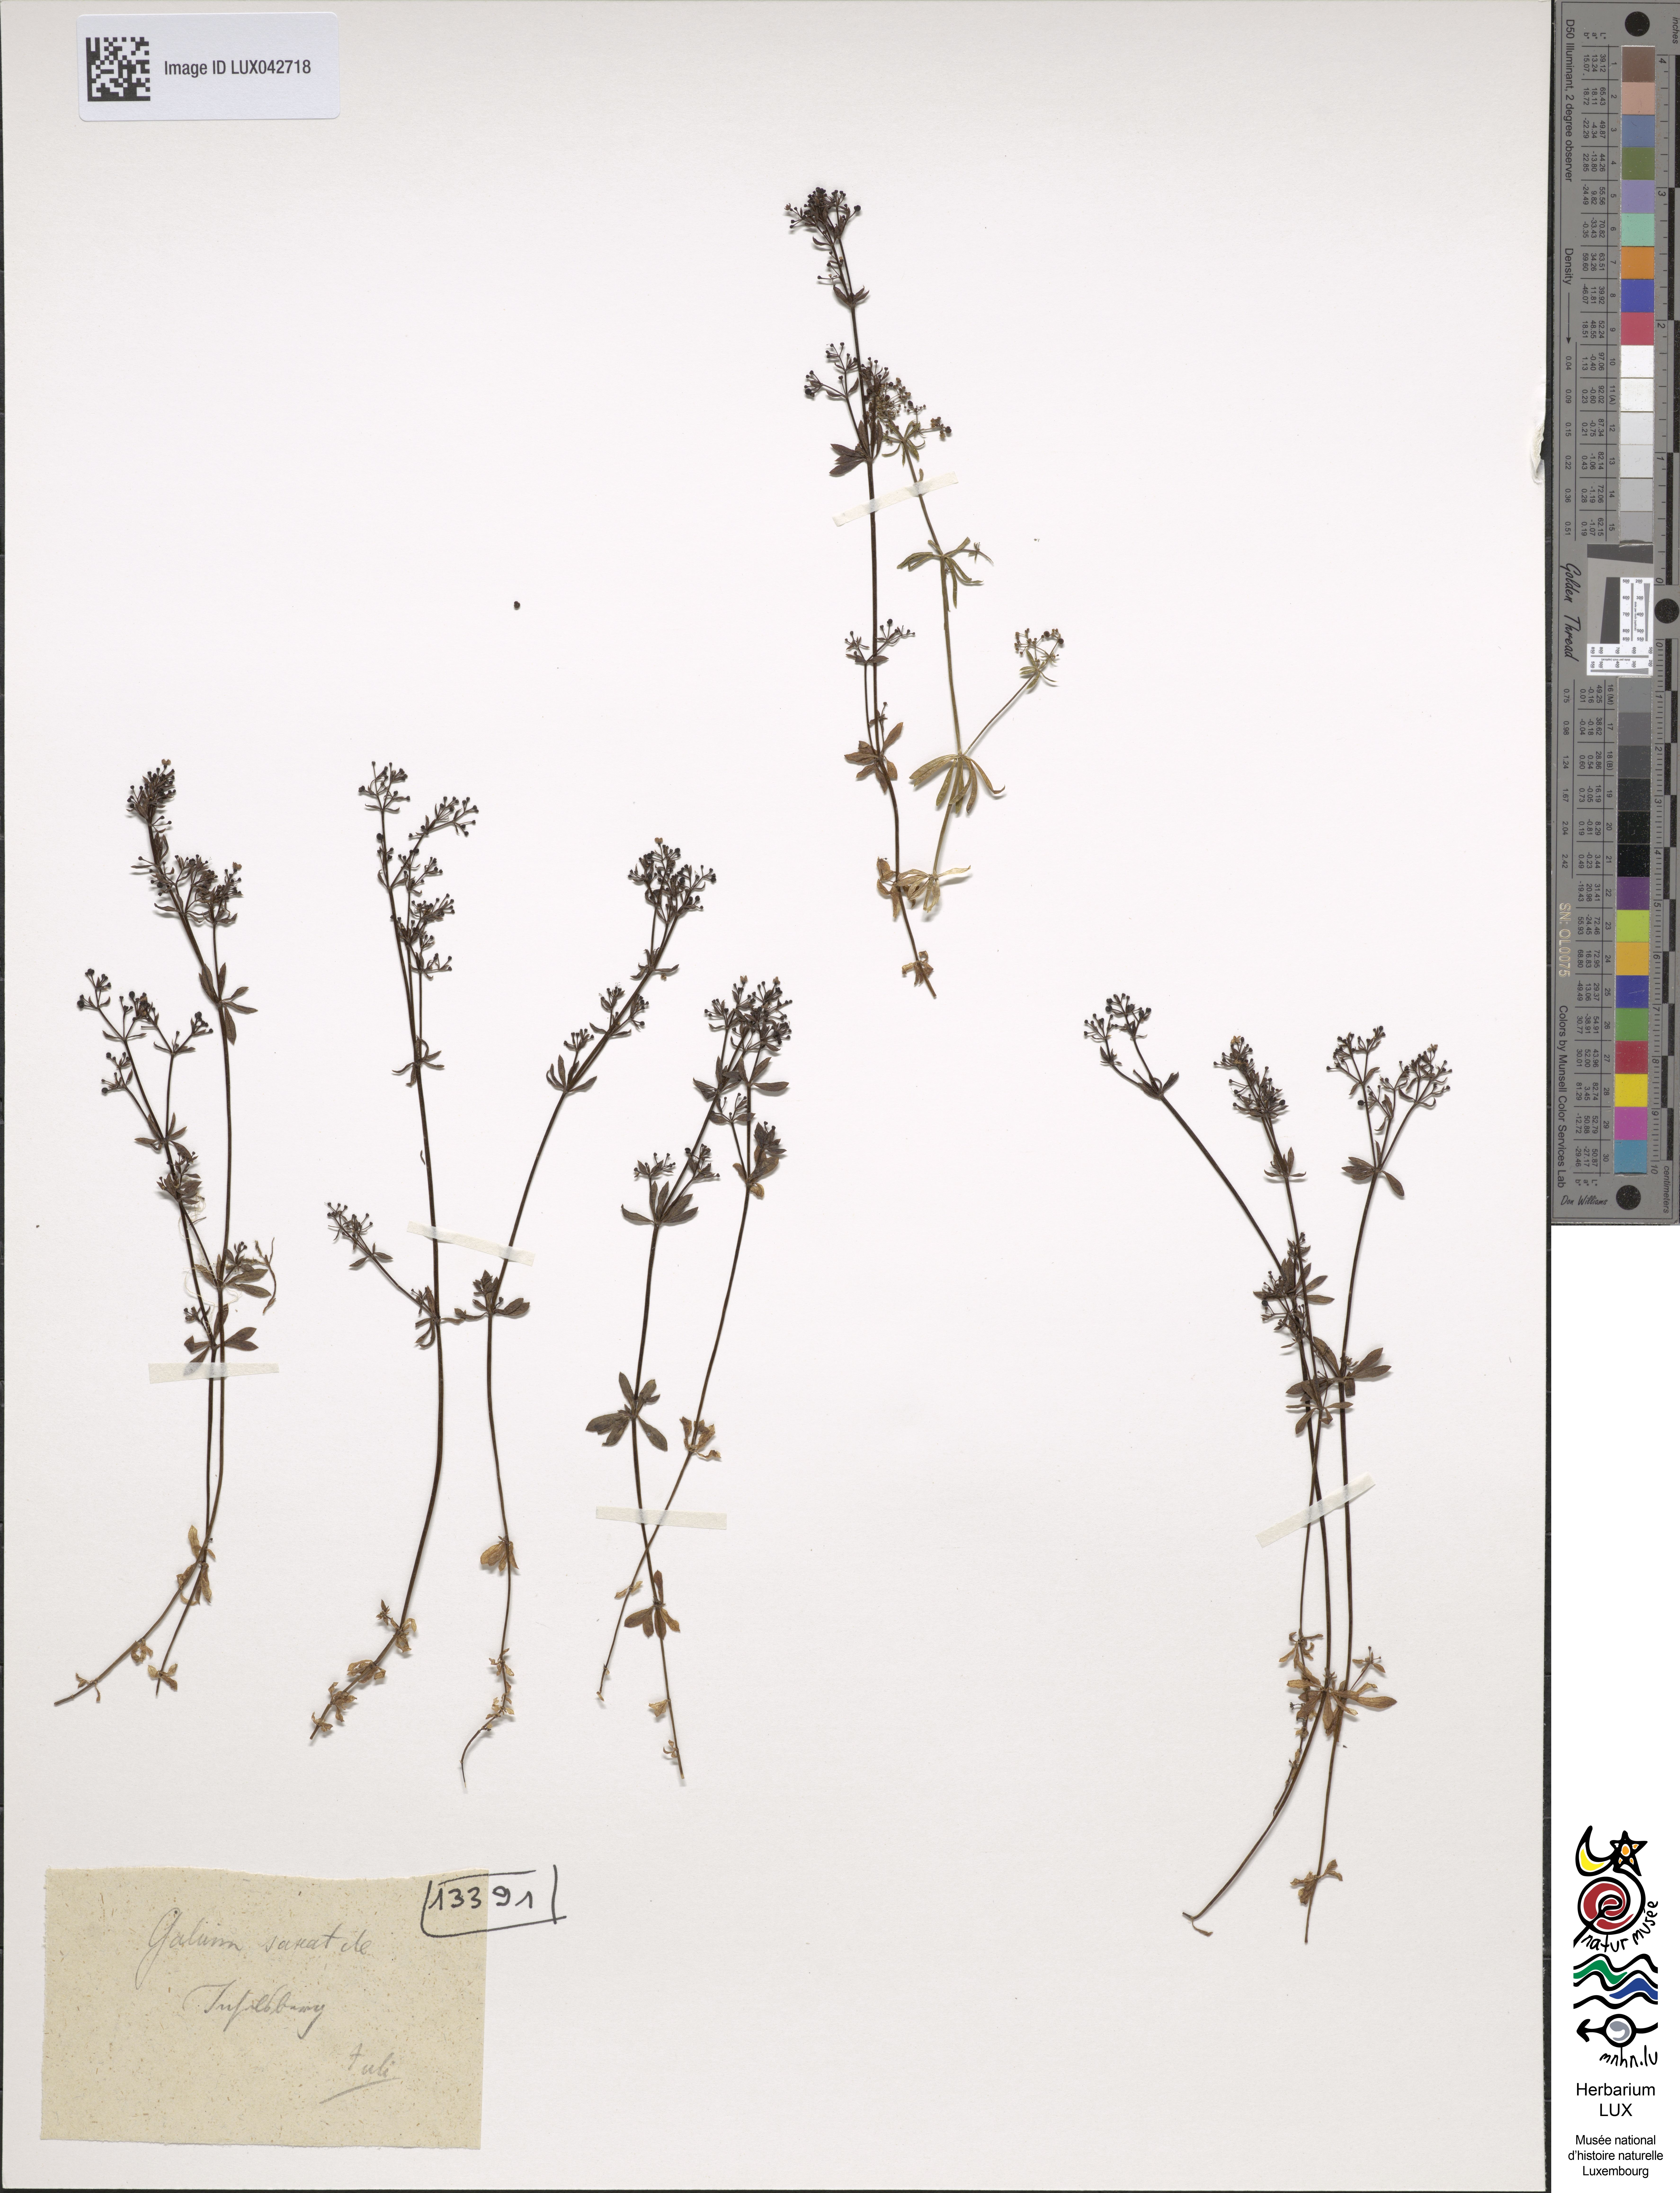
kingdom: Plantae
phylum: Tracheophyta
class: Magnoliopsida
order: Gentianales
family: Rubiaceae
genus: Galium
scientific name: Galium saxatile
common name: Heath bedstraw
